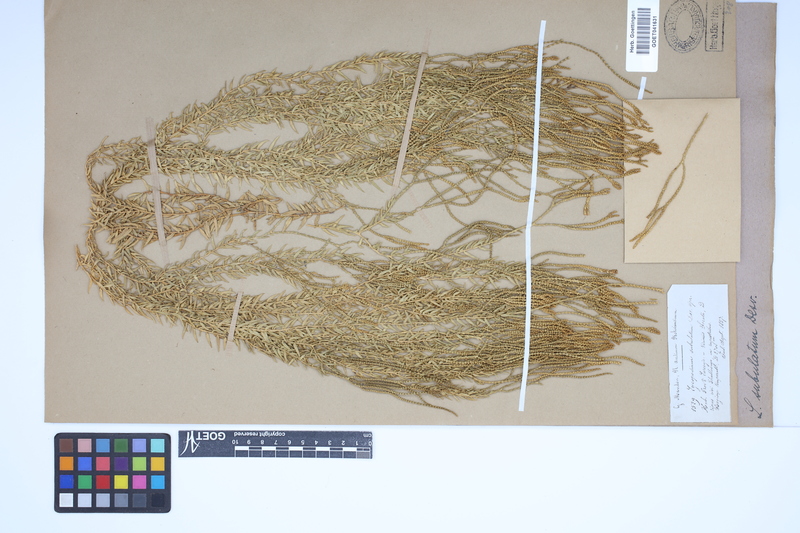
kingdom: Plantae
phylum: Tracheophyta
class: Lycopodiopsida
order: Lycopodiales
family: Lycopodiaceae
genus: Phlegmariurus
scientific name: Phlegmariurus subulatus
